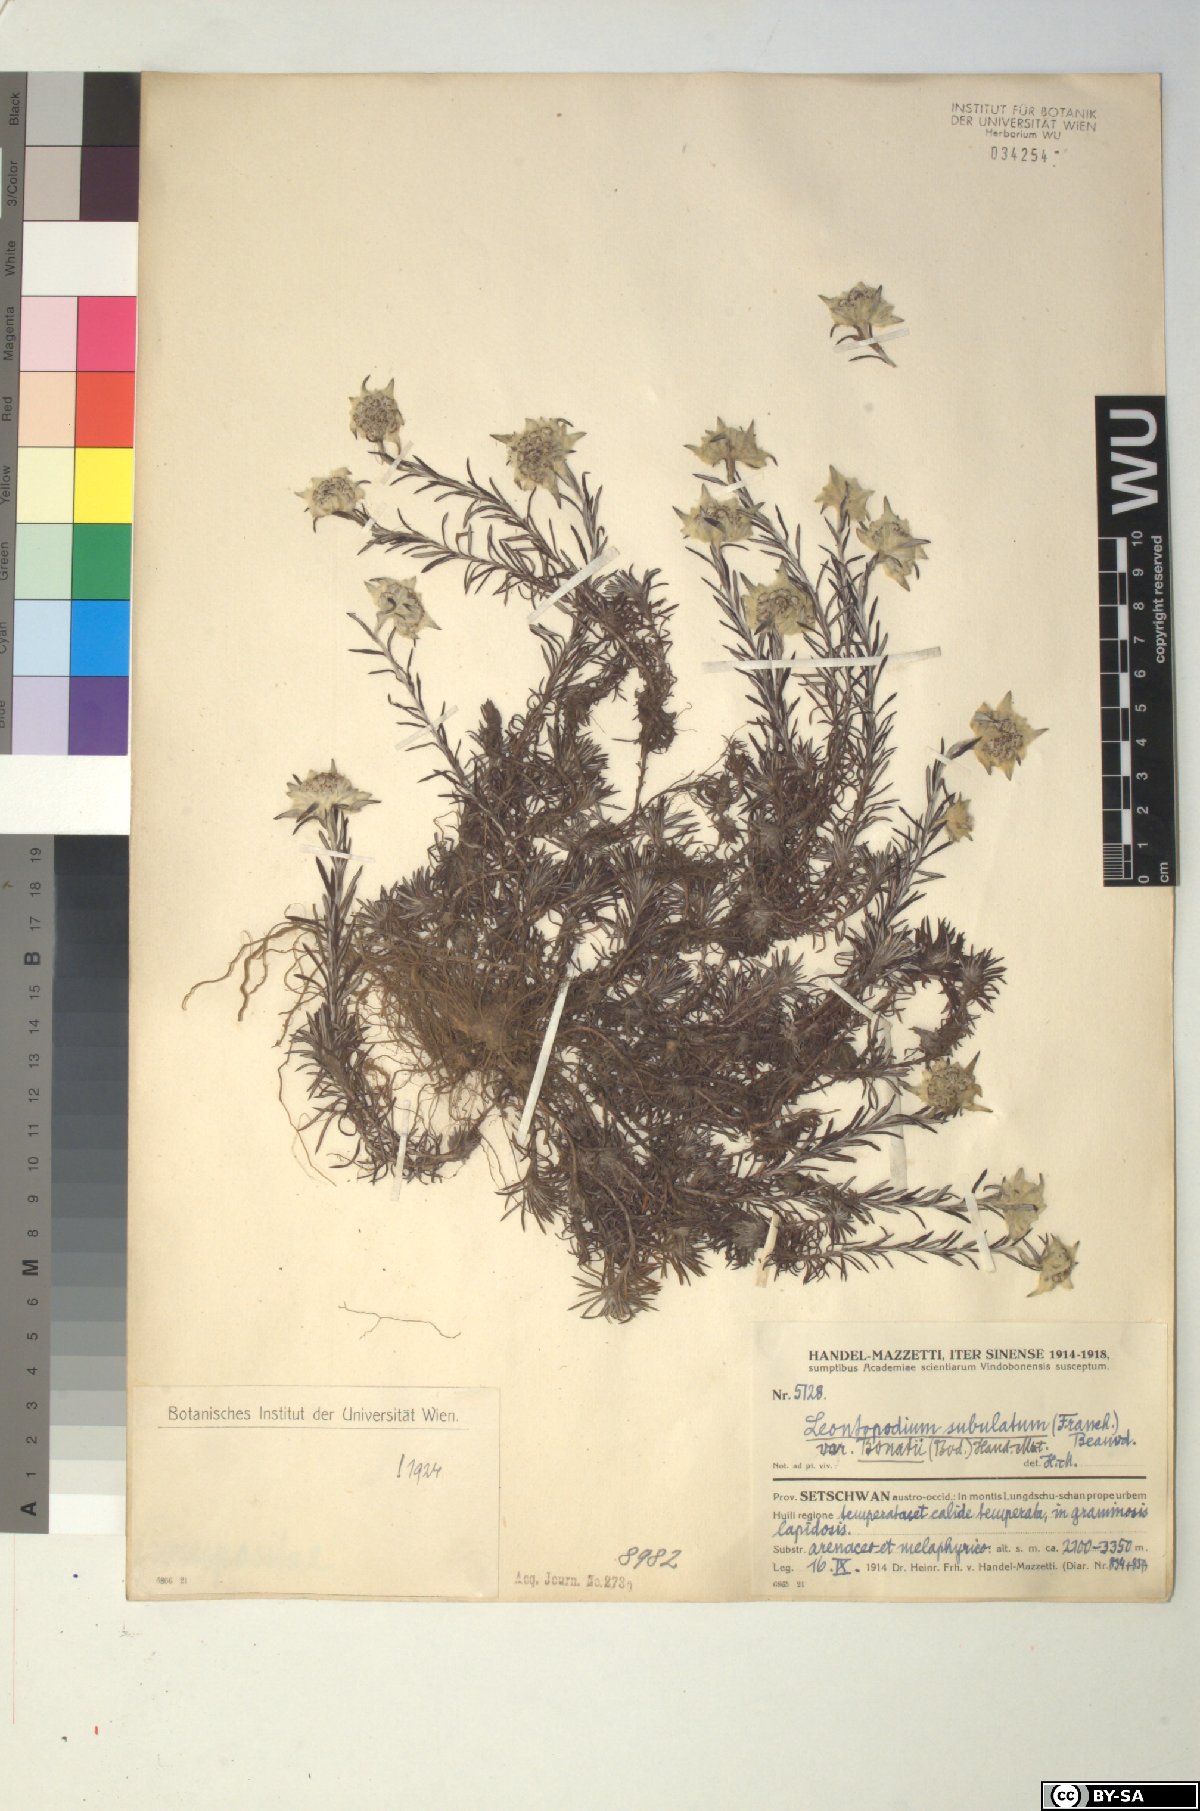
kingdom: Plantae
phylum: Tracheophyta
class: Magnoliopsida
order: Asterales
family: Asteraceae
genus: Leontopodium
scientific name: Leontopodium andersonii
